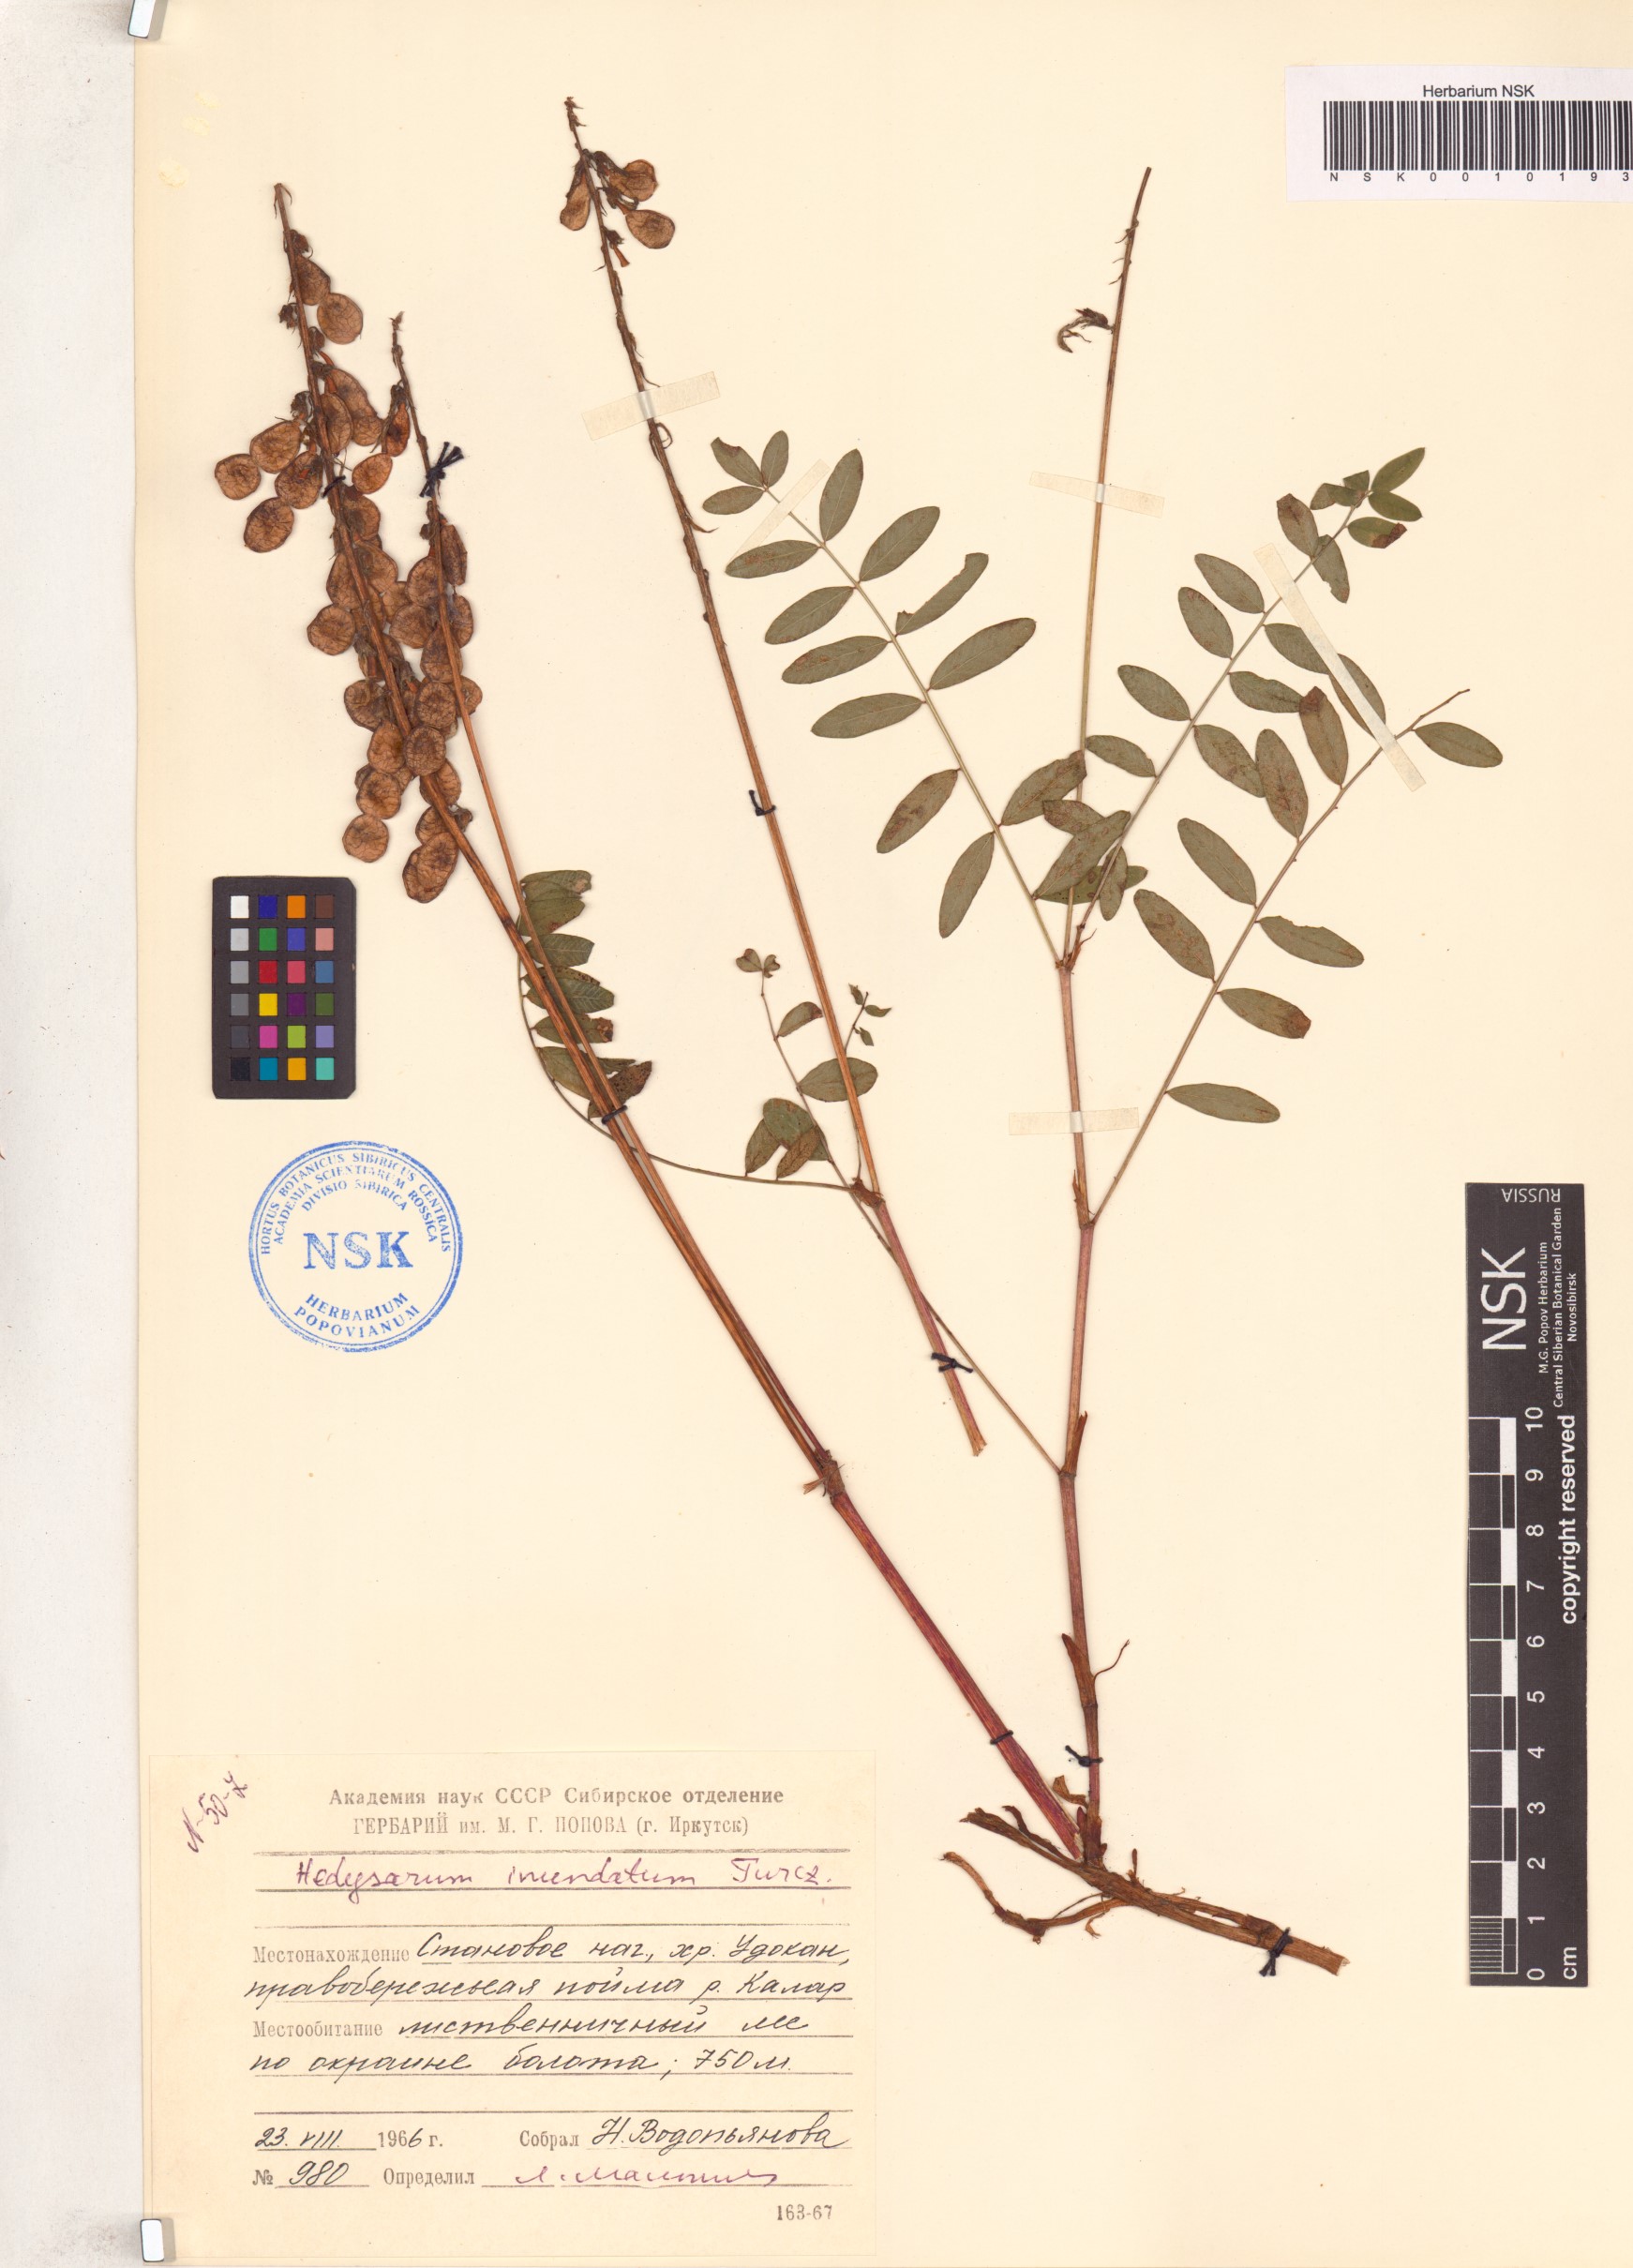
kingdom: Plantae
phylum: Tracheophyta
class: Magnoliopsida
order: Fabales
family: Fabaceae
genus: Hedysarum
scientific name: Hedysarum inundatum
